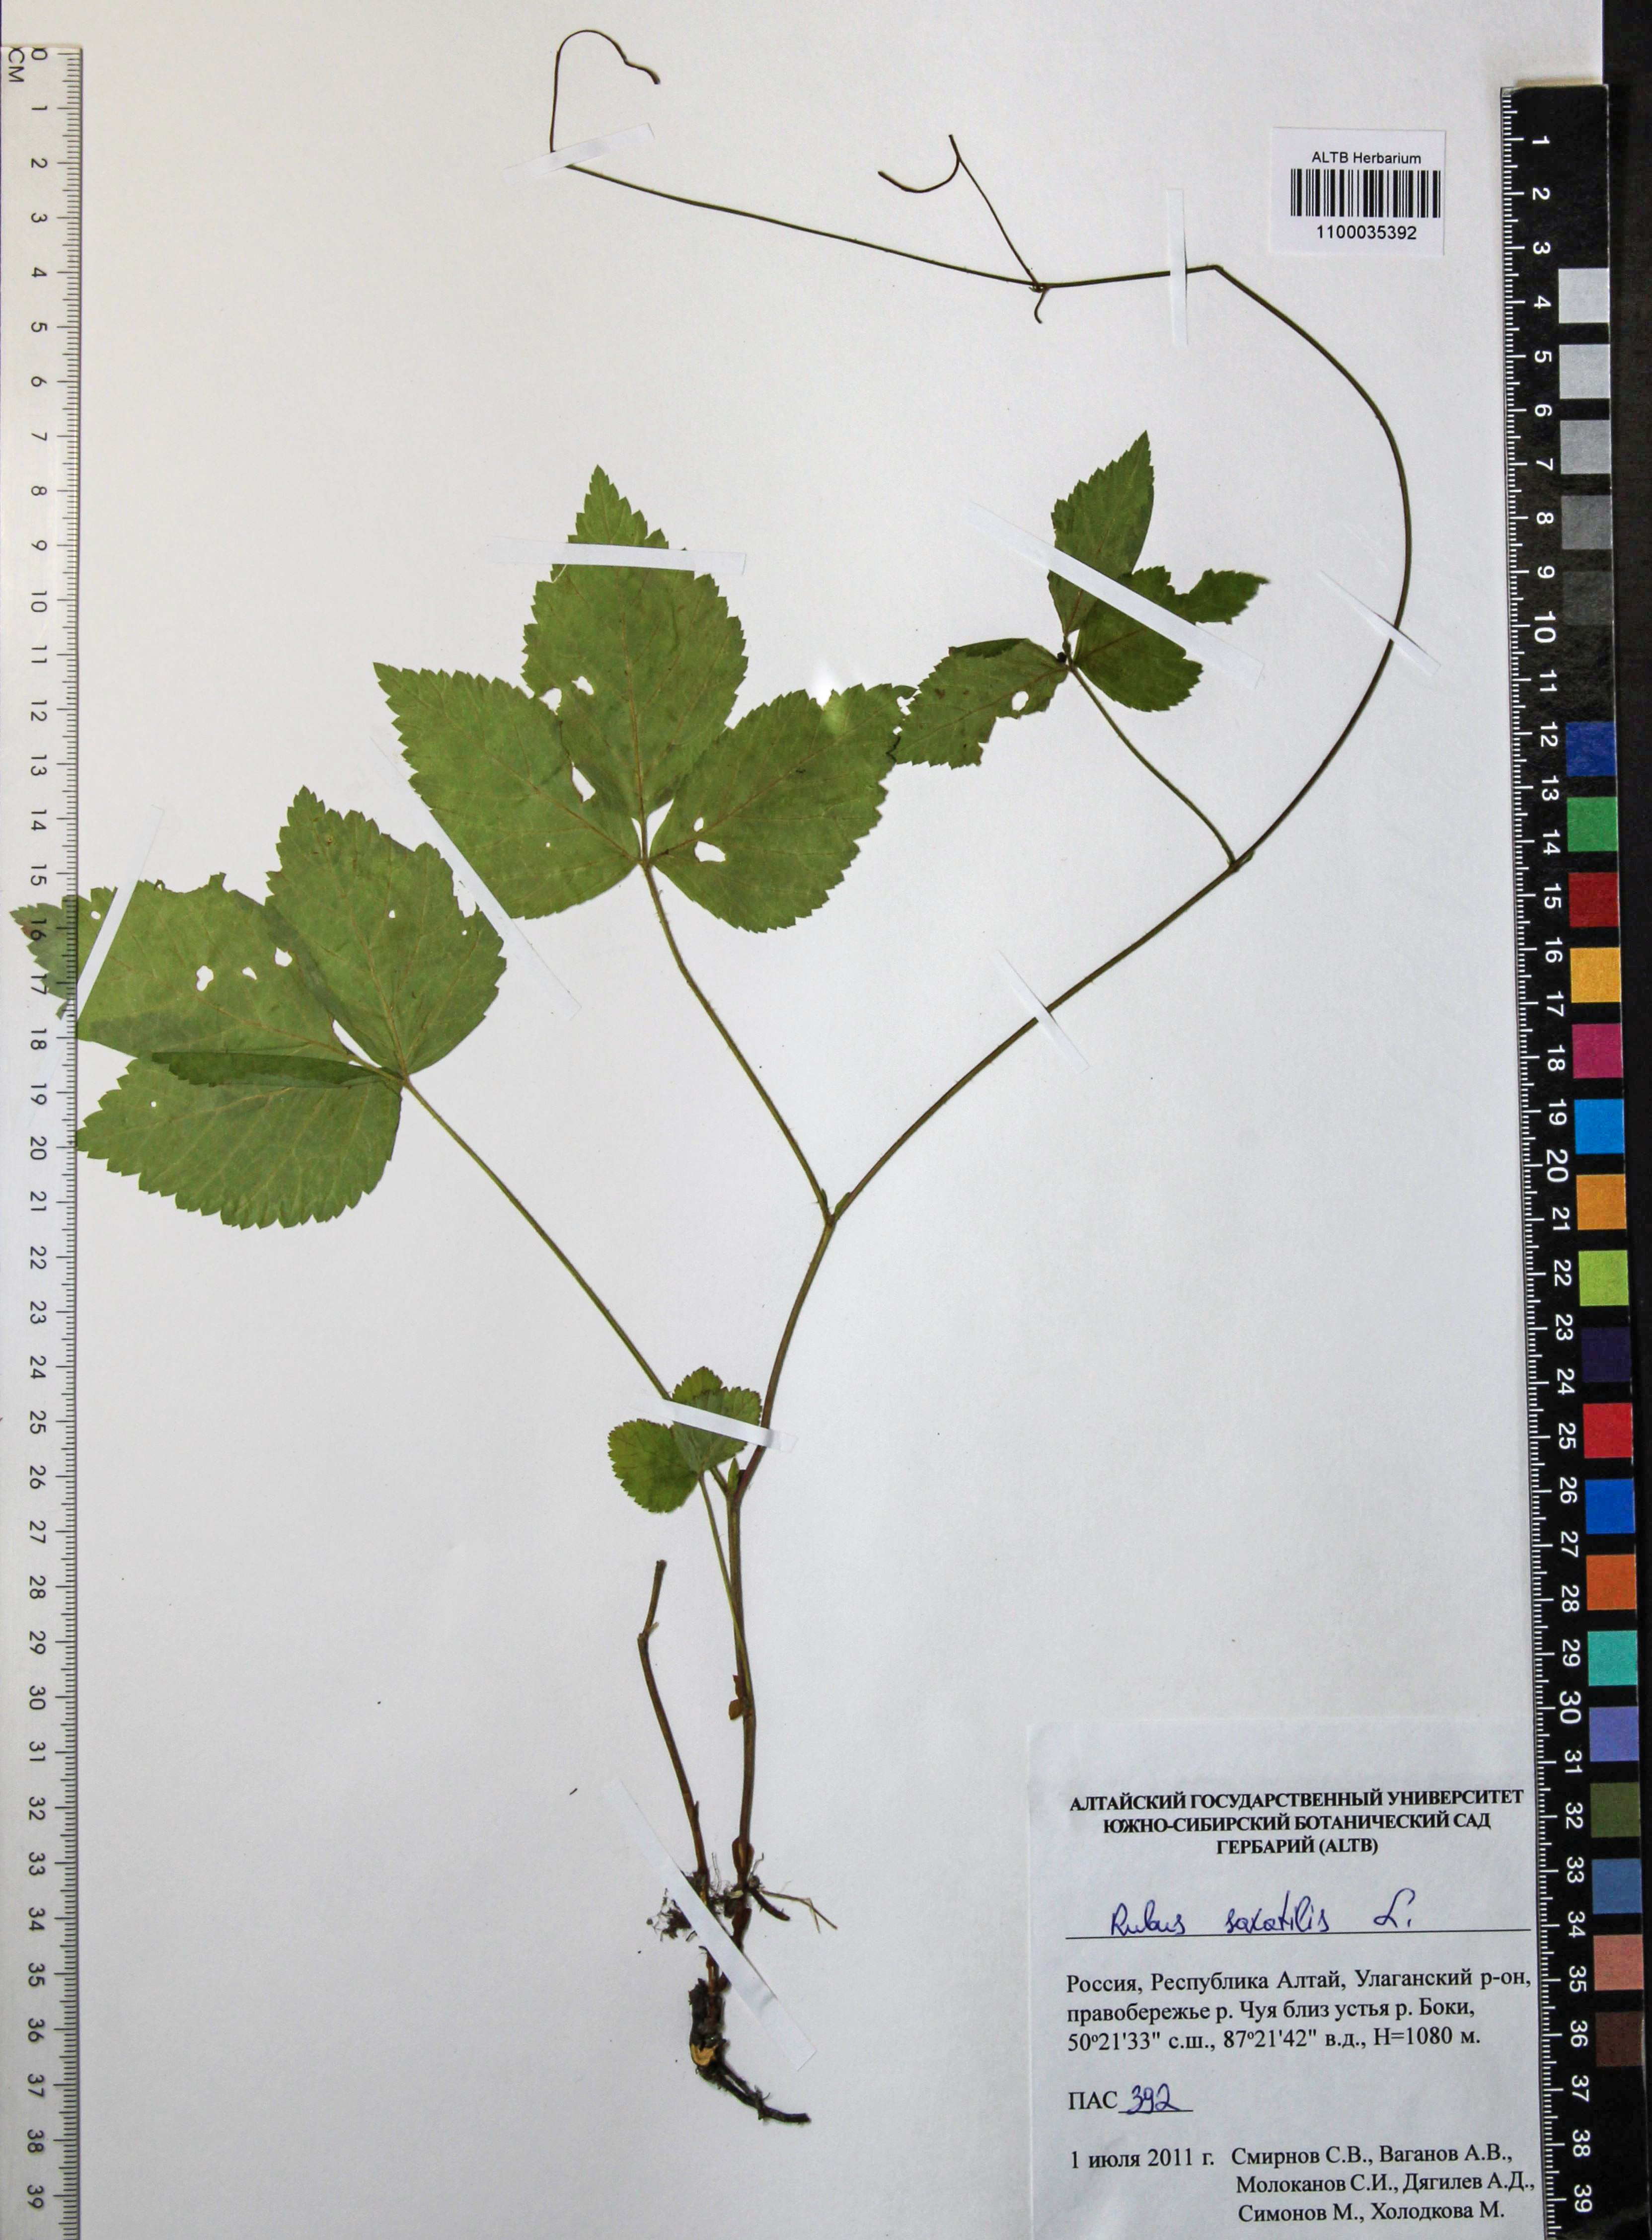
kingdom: Plantae
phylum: Tracheophyta
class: Magnoliopsida
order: Rosales
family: Rosaceae
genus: Rubus
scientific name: Rubus saxatilis
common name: Stone bramble
